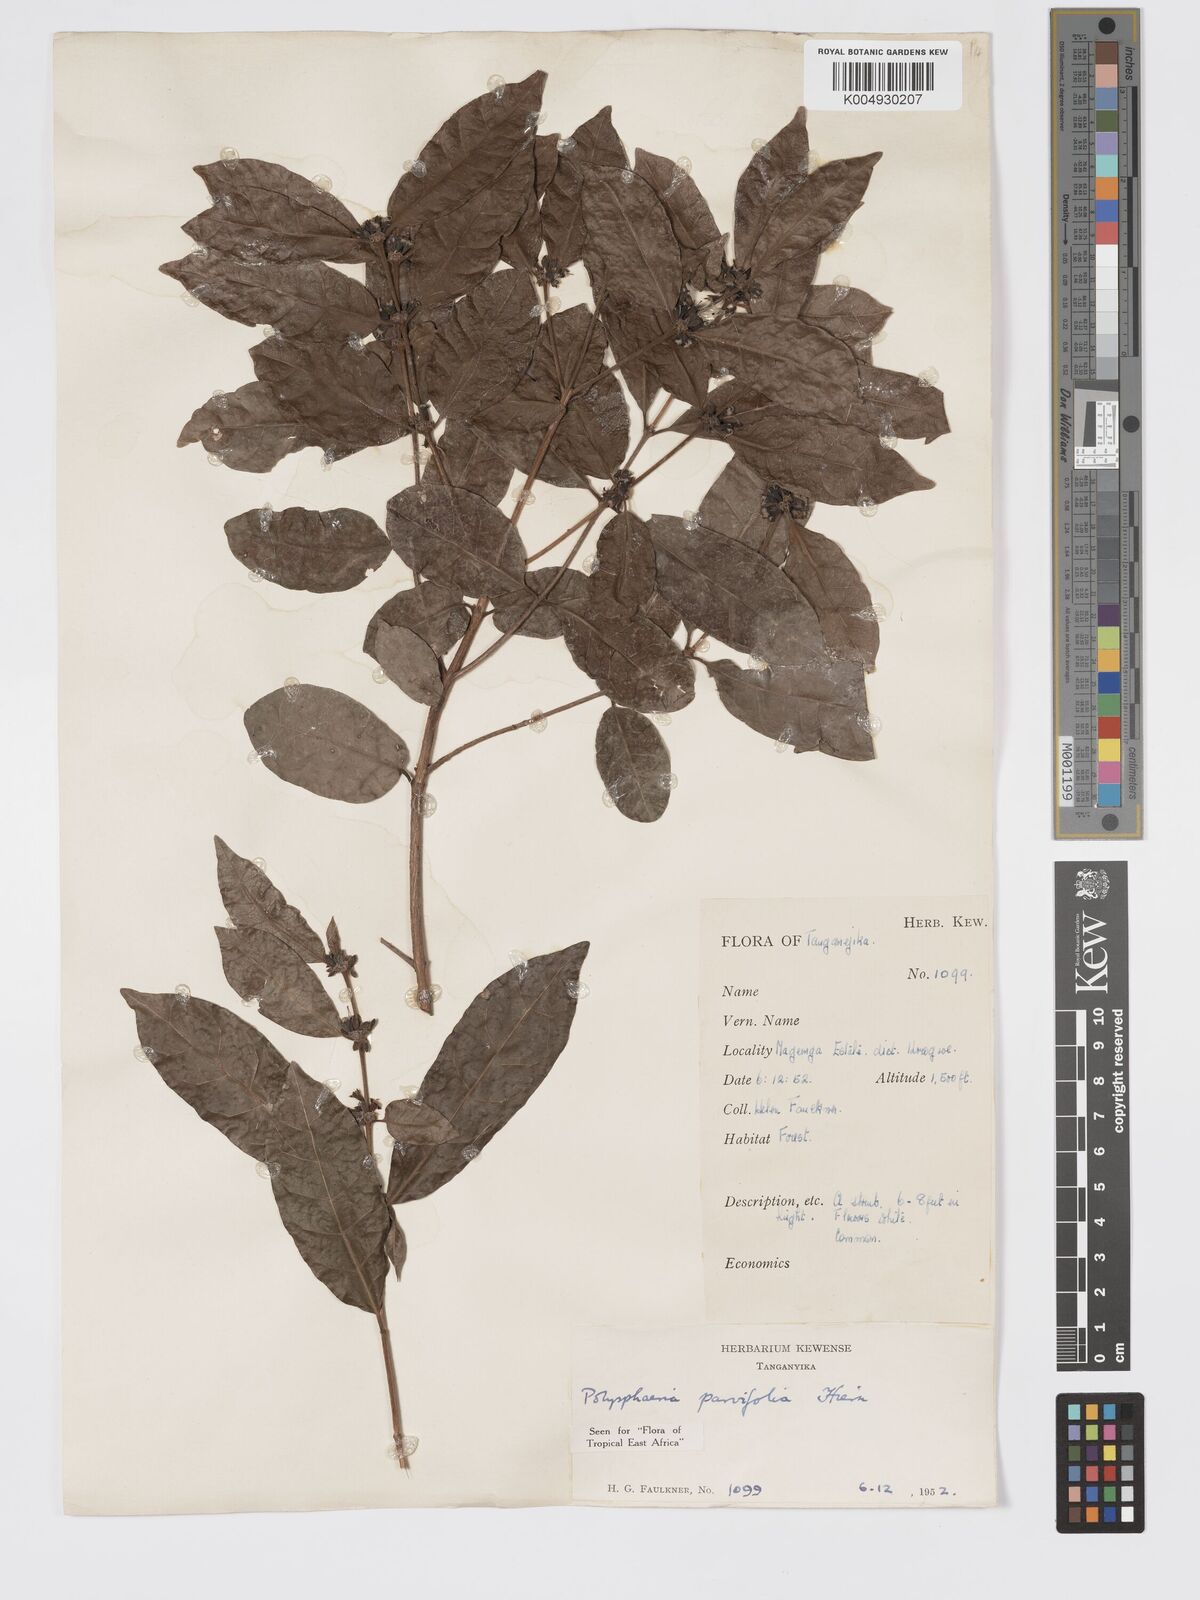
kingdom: Plantae
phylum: Tracheophyta
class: Magnoliopsida
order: Gentianales
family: Rubiaceae
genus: Polysphaeria
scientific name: Polysphaeria parvifolia
